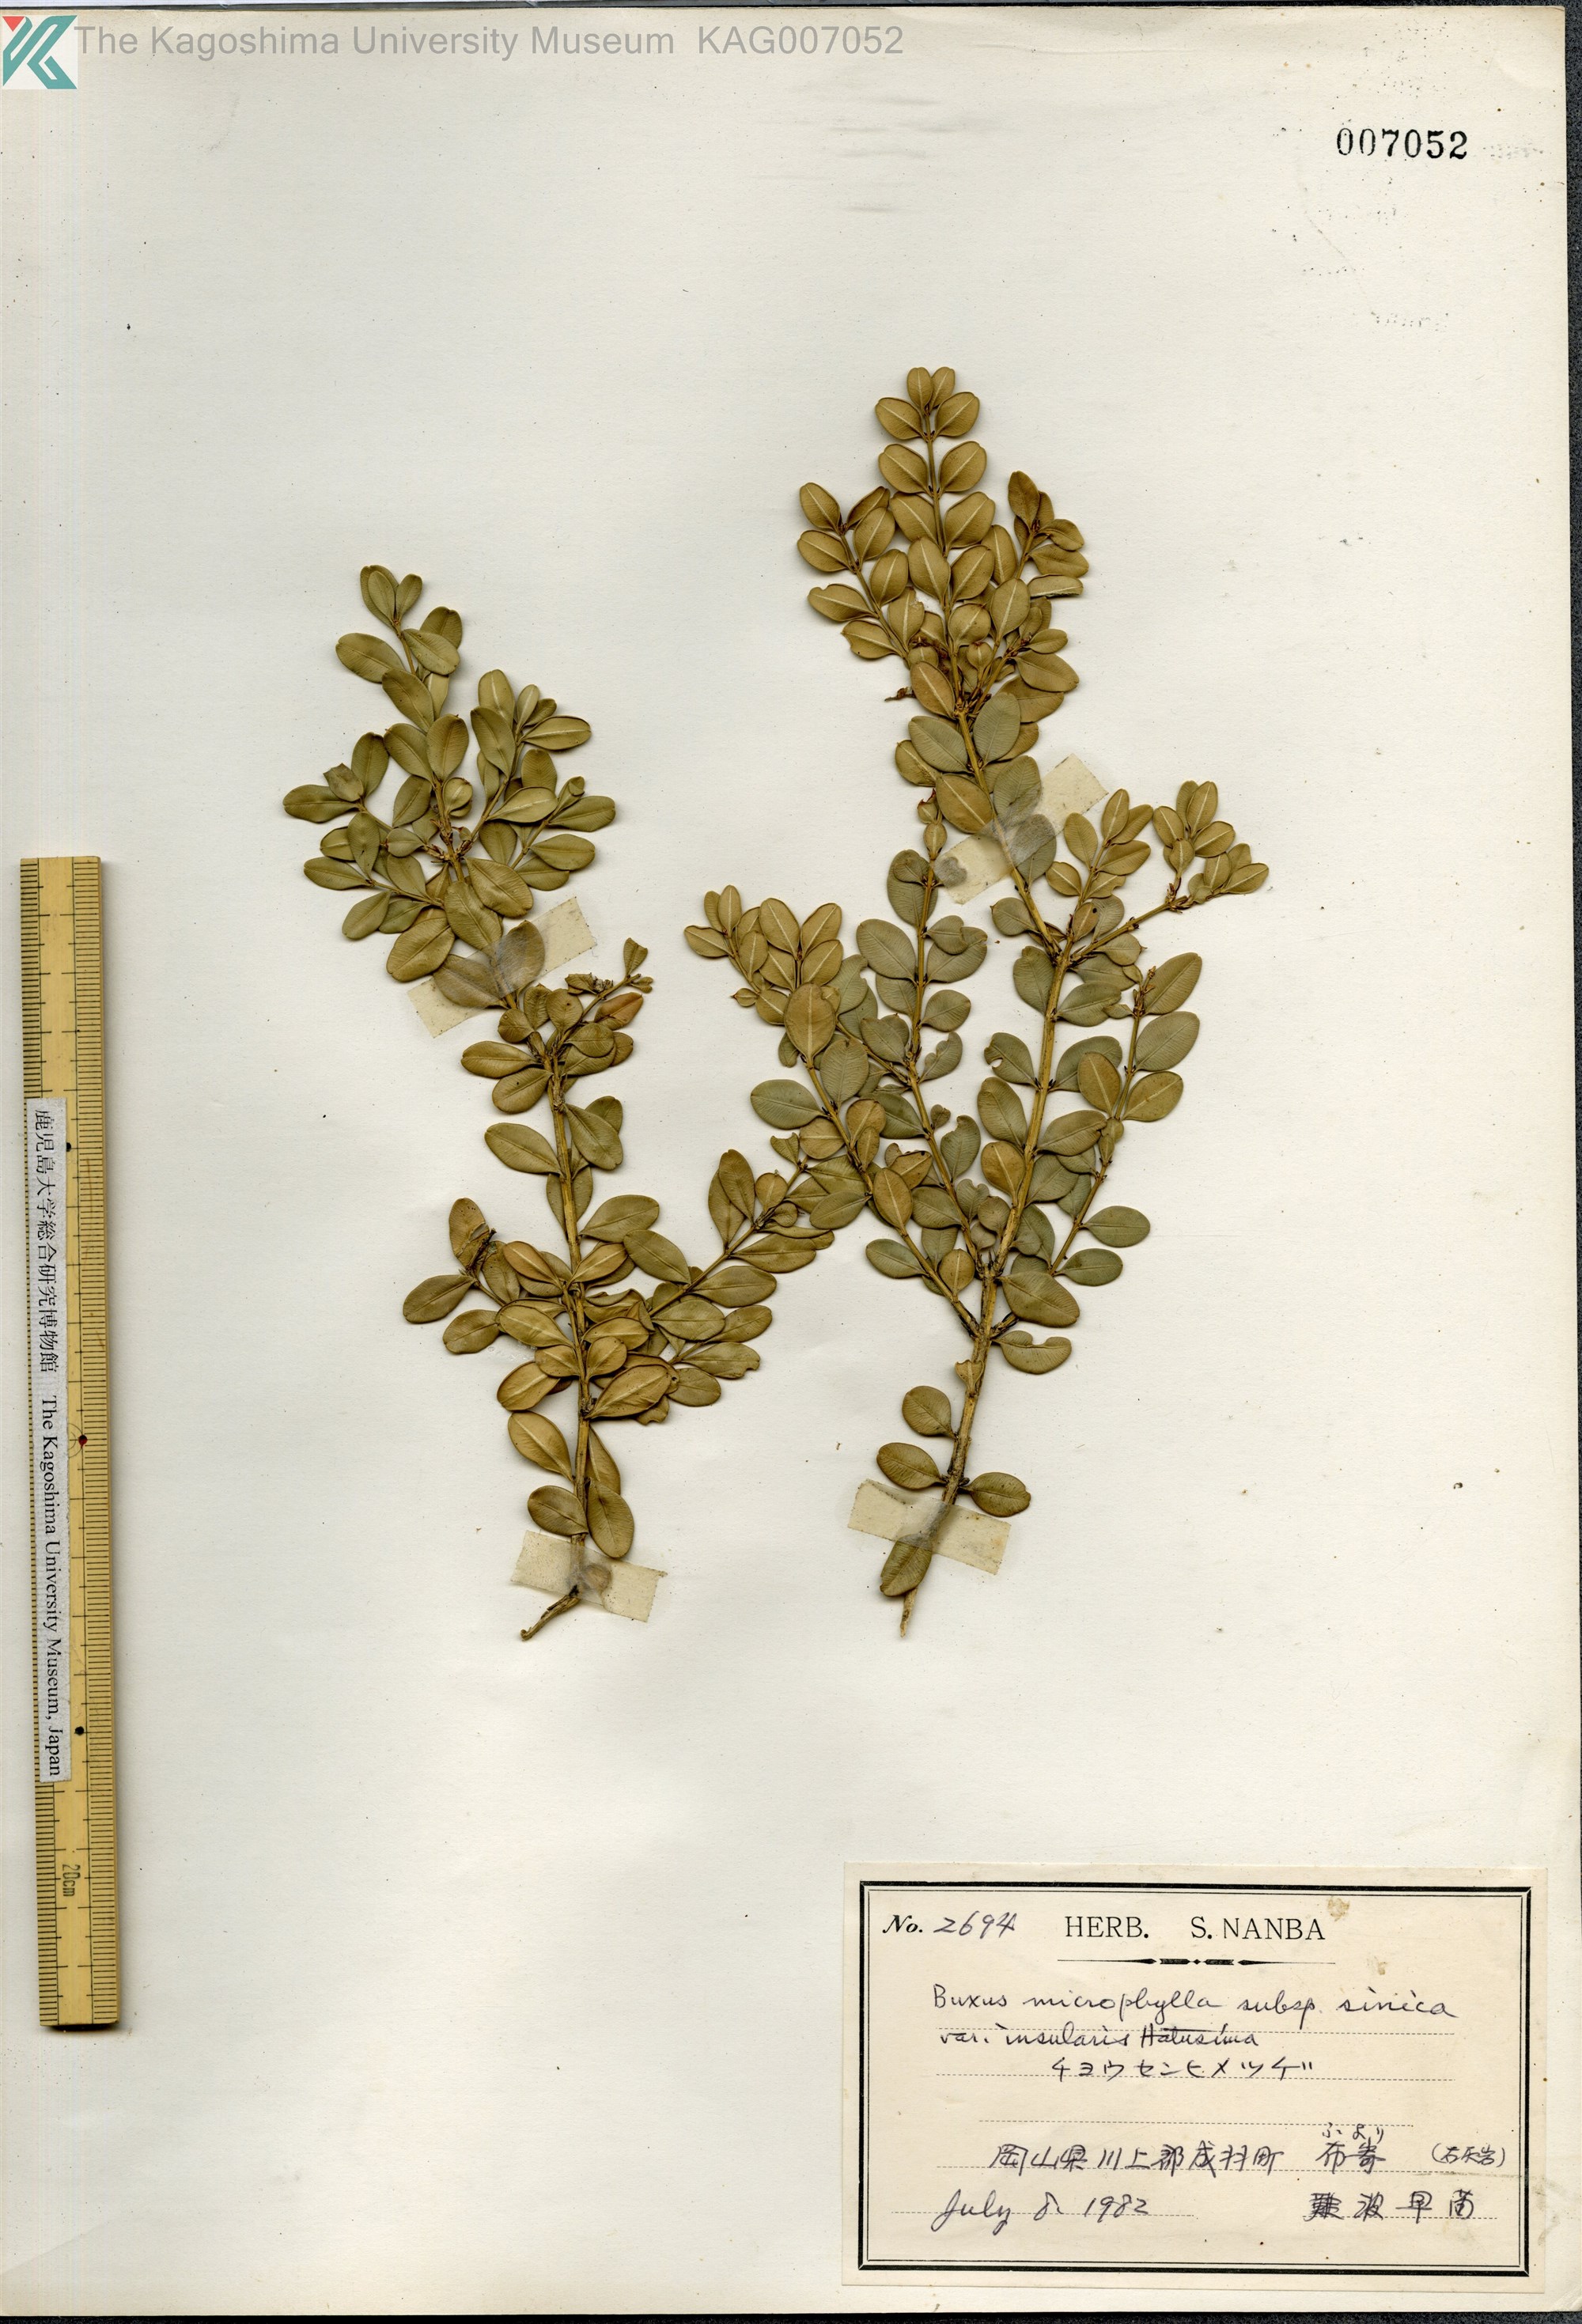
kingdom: Plantae
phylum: Tracheophyta
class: Magnoliopsida
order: Buxales
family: Buxaceae
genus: Buxus
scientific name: Buxus sinica
